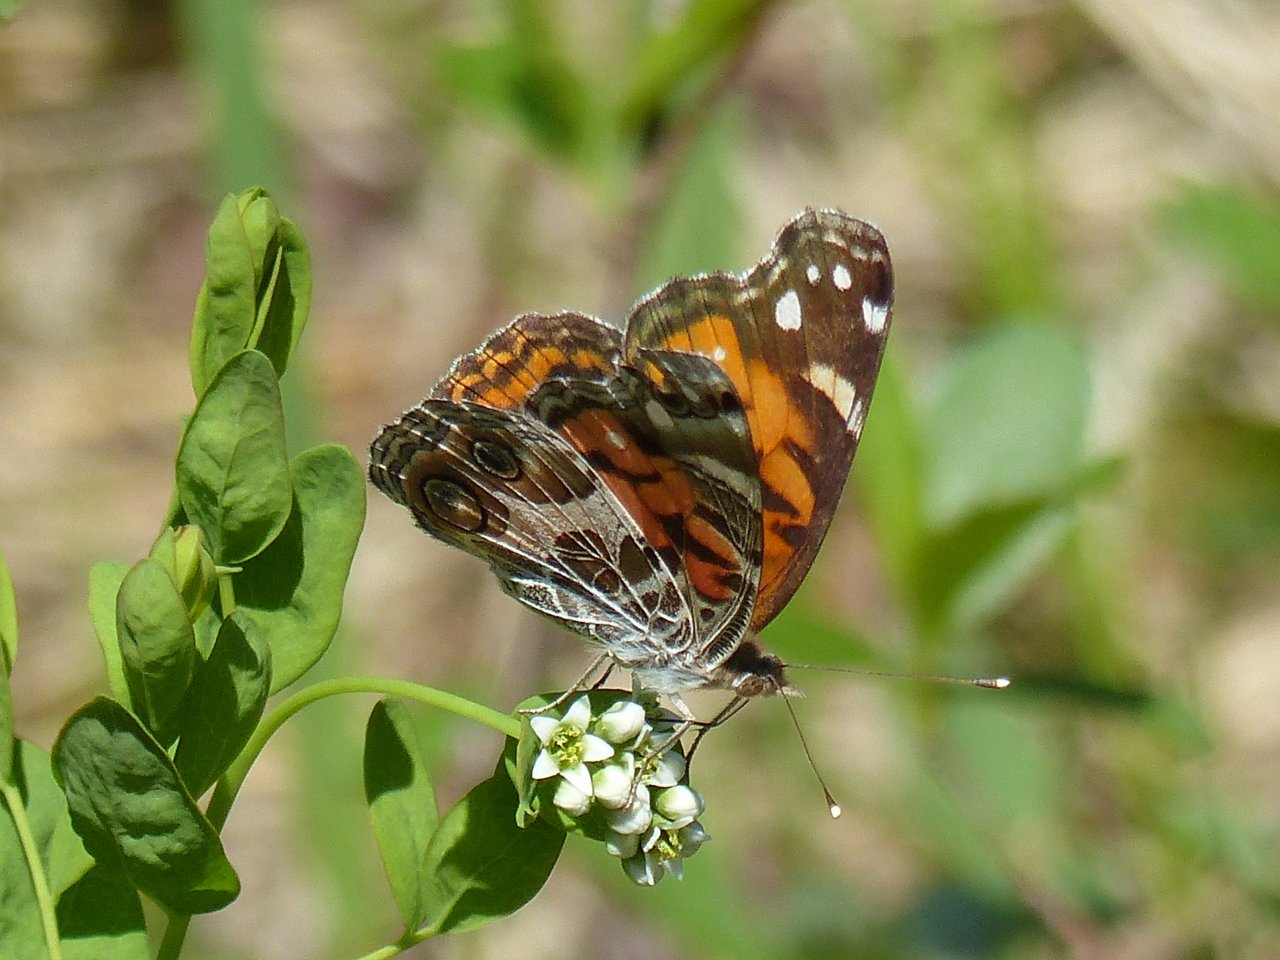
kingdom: Animalia
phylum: Arthropoda
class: Insecta
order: Lepidoptera
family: Nymphalidae
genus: Vanessa
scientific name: Vanessa virginiensis
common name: American Lady
